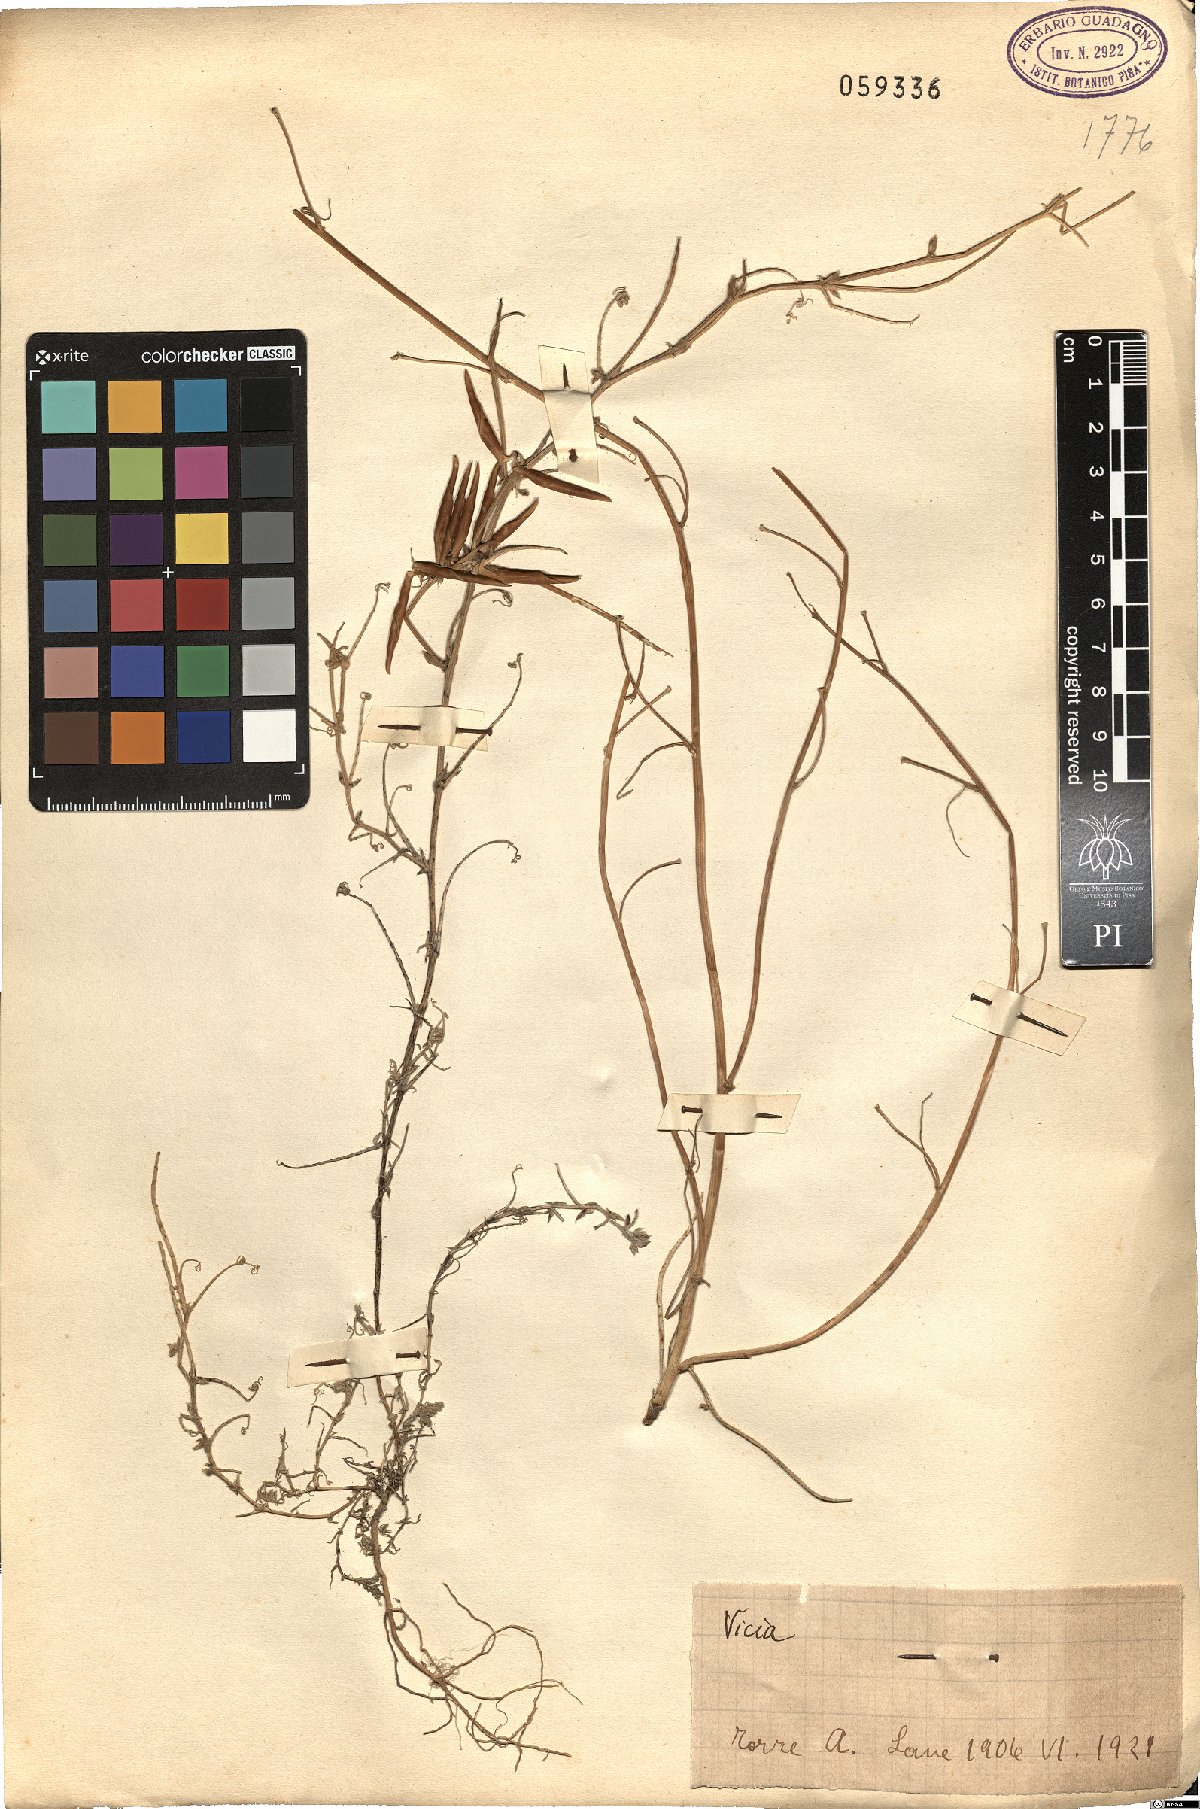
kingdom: Plantae
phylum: Tracheophyta
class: Magnoliopsida
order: Fabales
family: Fabaceae
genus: Vicia
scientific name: Vicia
